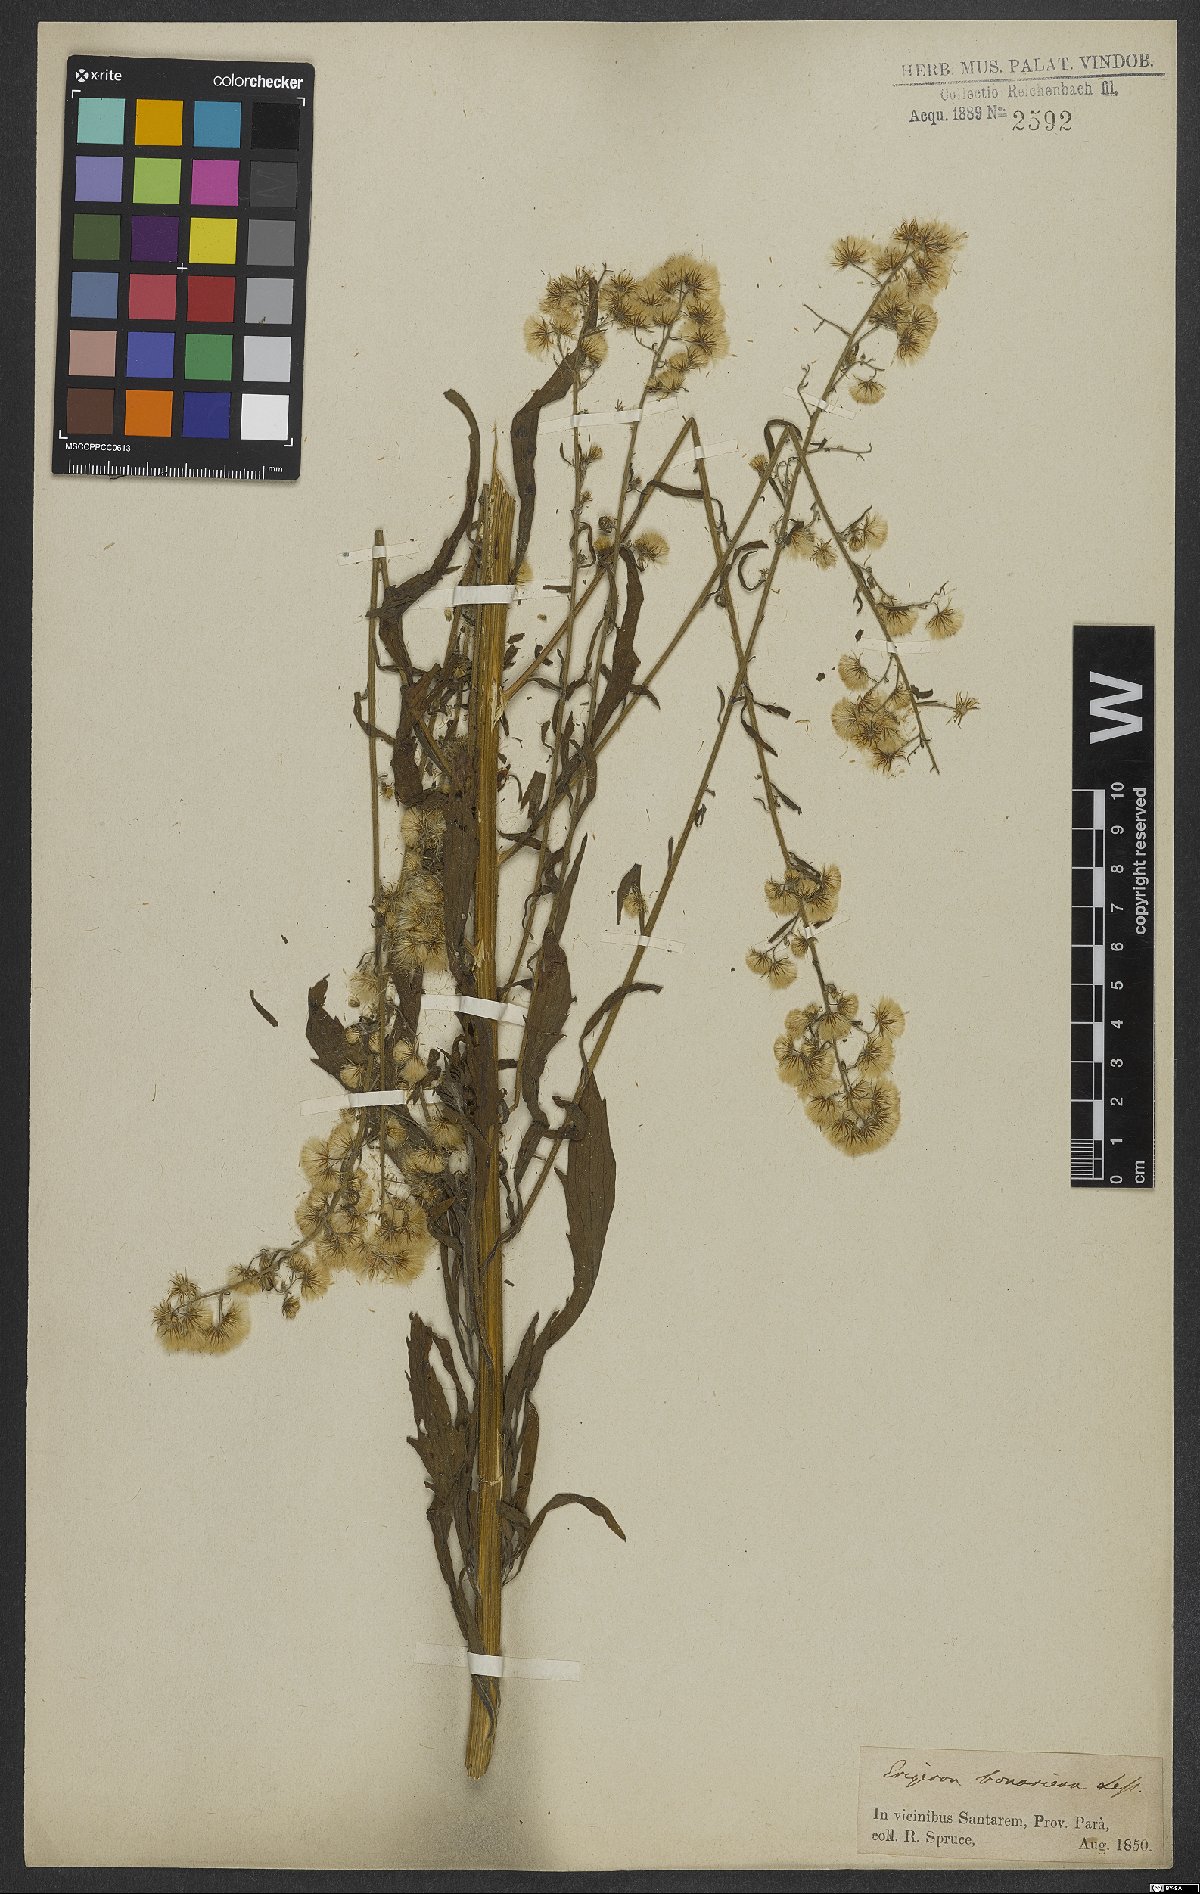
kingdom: Plantae
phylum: Tracheophyta
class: Magnoliopsida
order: Asterales
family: Asteraceae
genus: Erigeron
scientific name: Erigeron bonariensis
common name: Argentine fleabane
